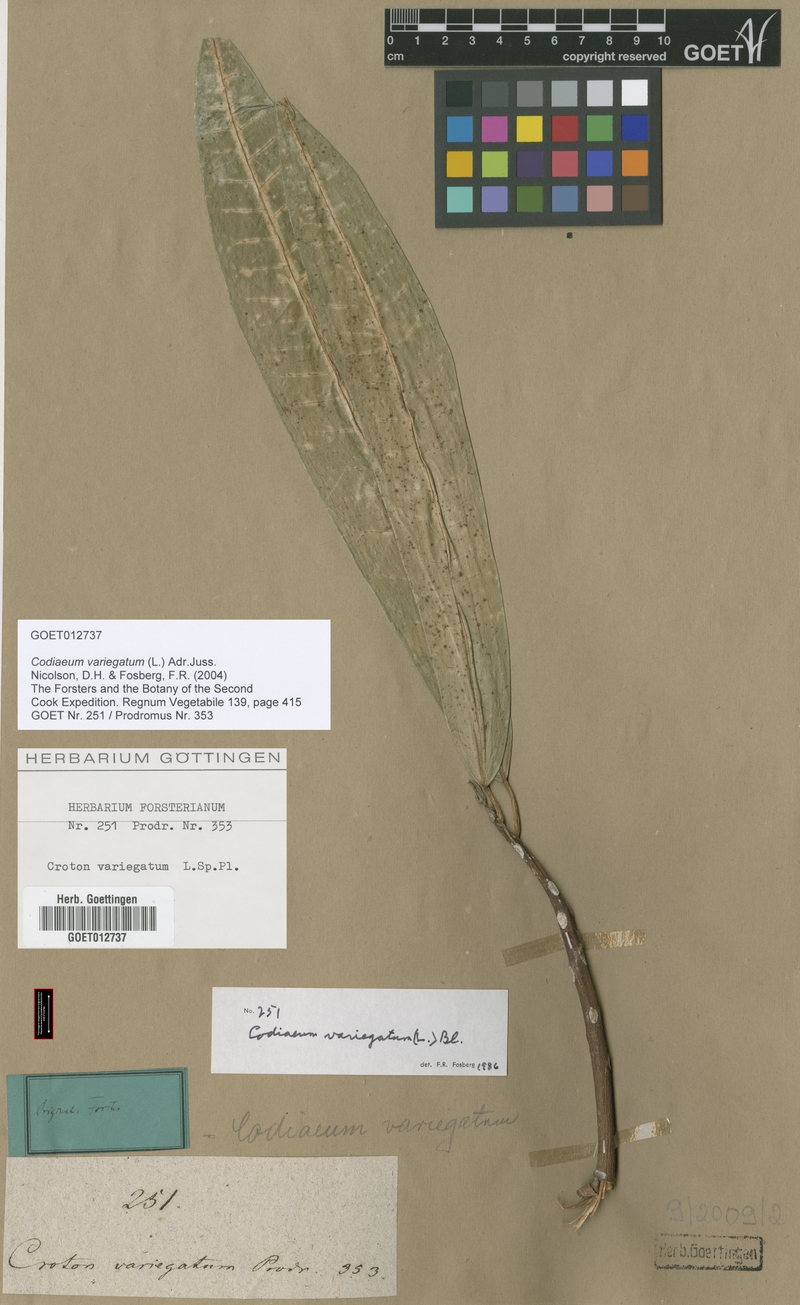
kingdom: Plantae
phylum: Tracheophyta
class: Magnoliopsida
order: Malpighiales
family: Euphorbiaceae
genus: Codiaeum
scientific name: Codiaeum variegatum
